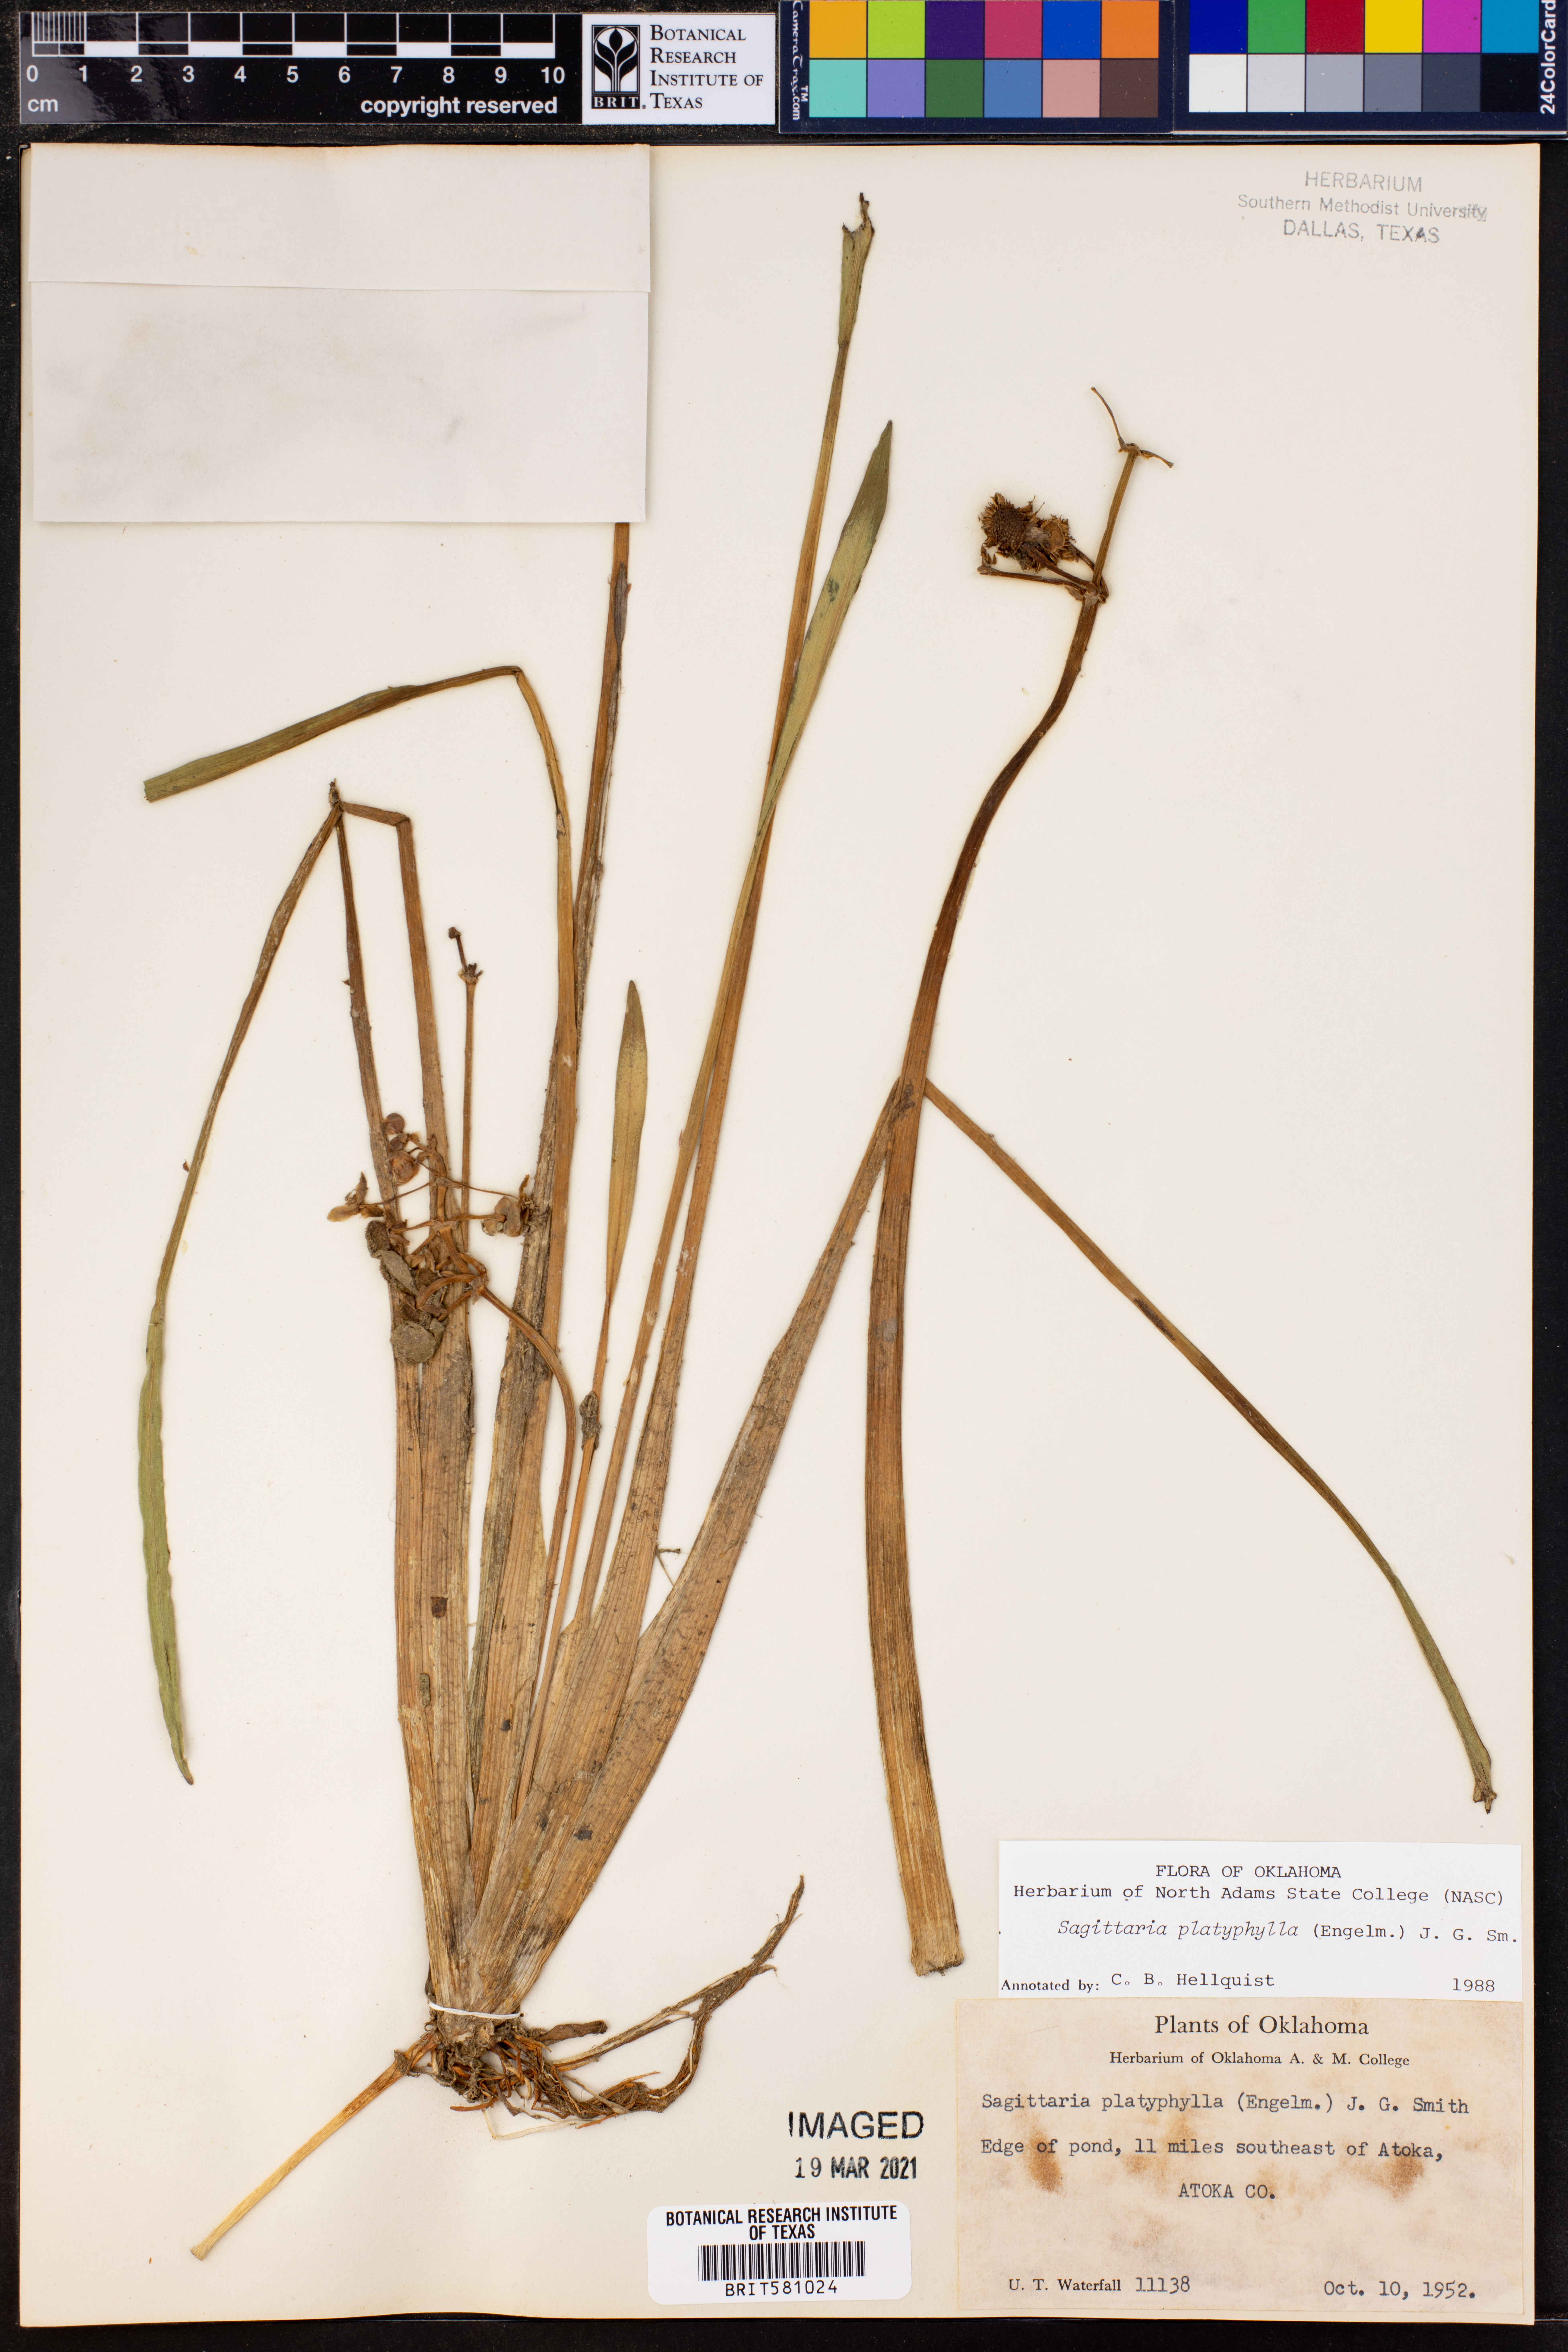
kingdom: Plantae
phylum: Tracheophyta
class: Liliopsida
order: Alismatales
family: Alismataceae
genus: Sagittaria
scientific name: Sagittaria platyphylla
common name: Broad-leaf arrowhead
